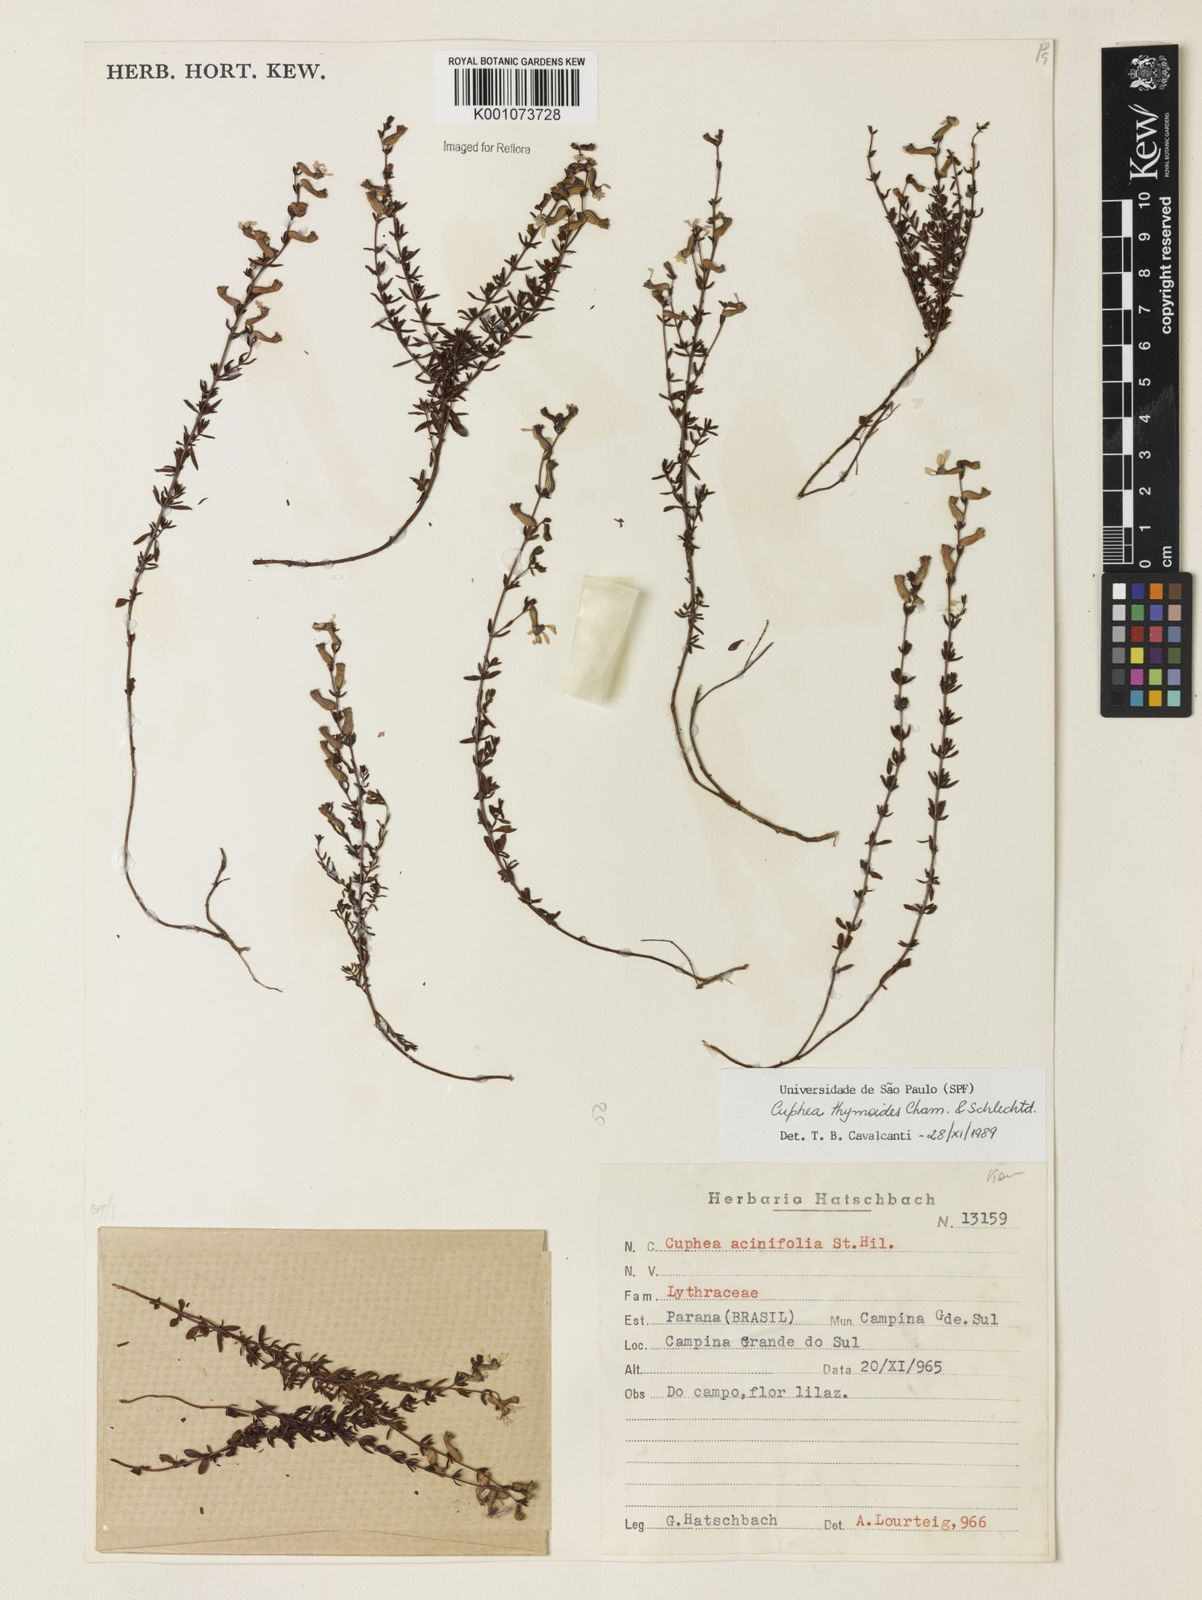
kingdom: Plantae
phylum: Tracheophyta
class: Magnoliopsida
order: Myrtales
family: Lythraceae
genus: Cuphea
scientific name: Cuphea thymoides
